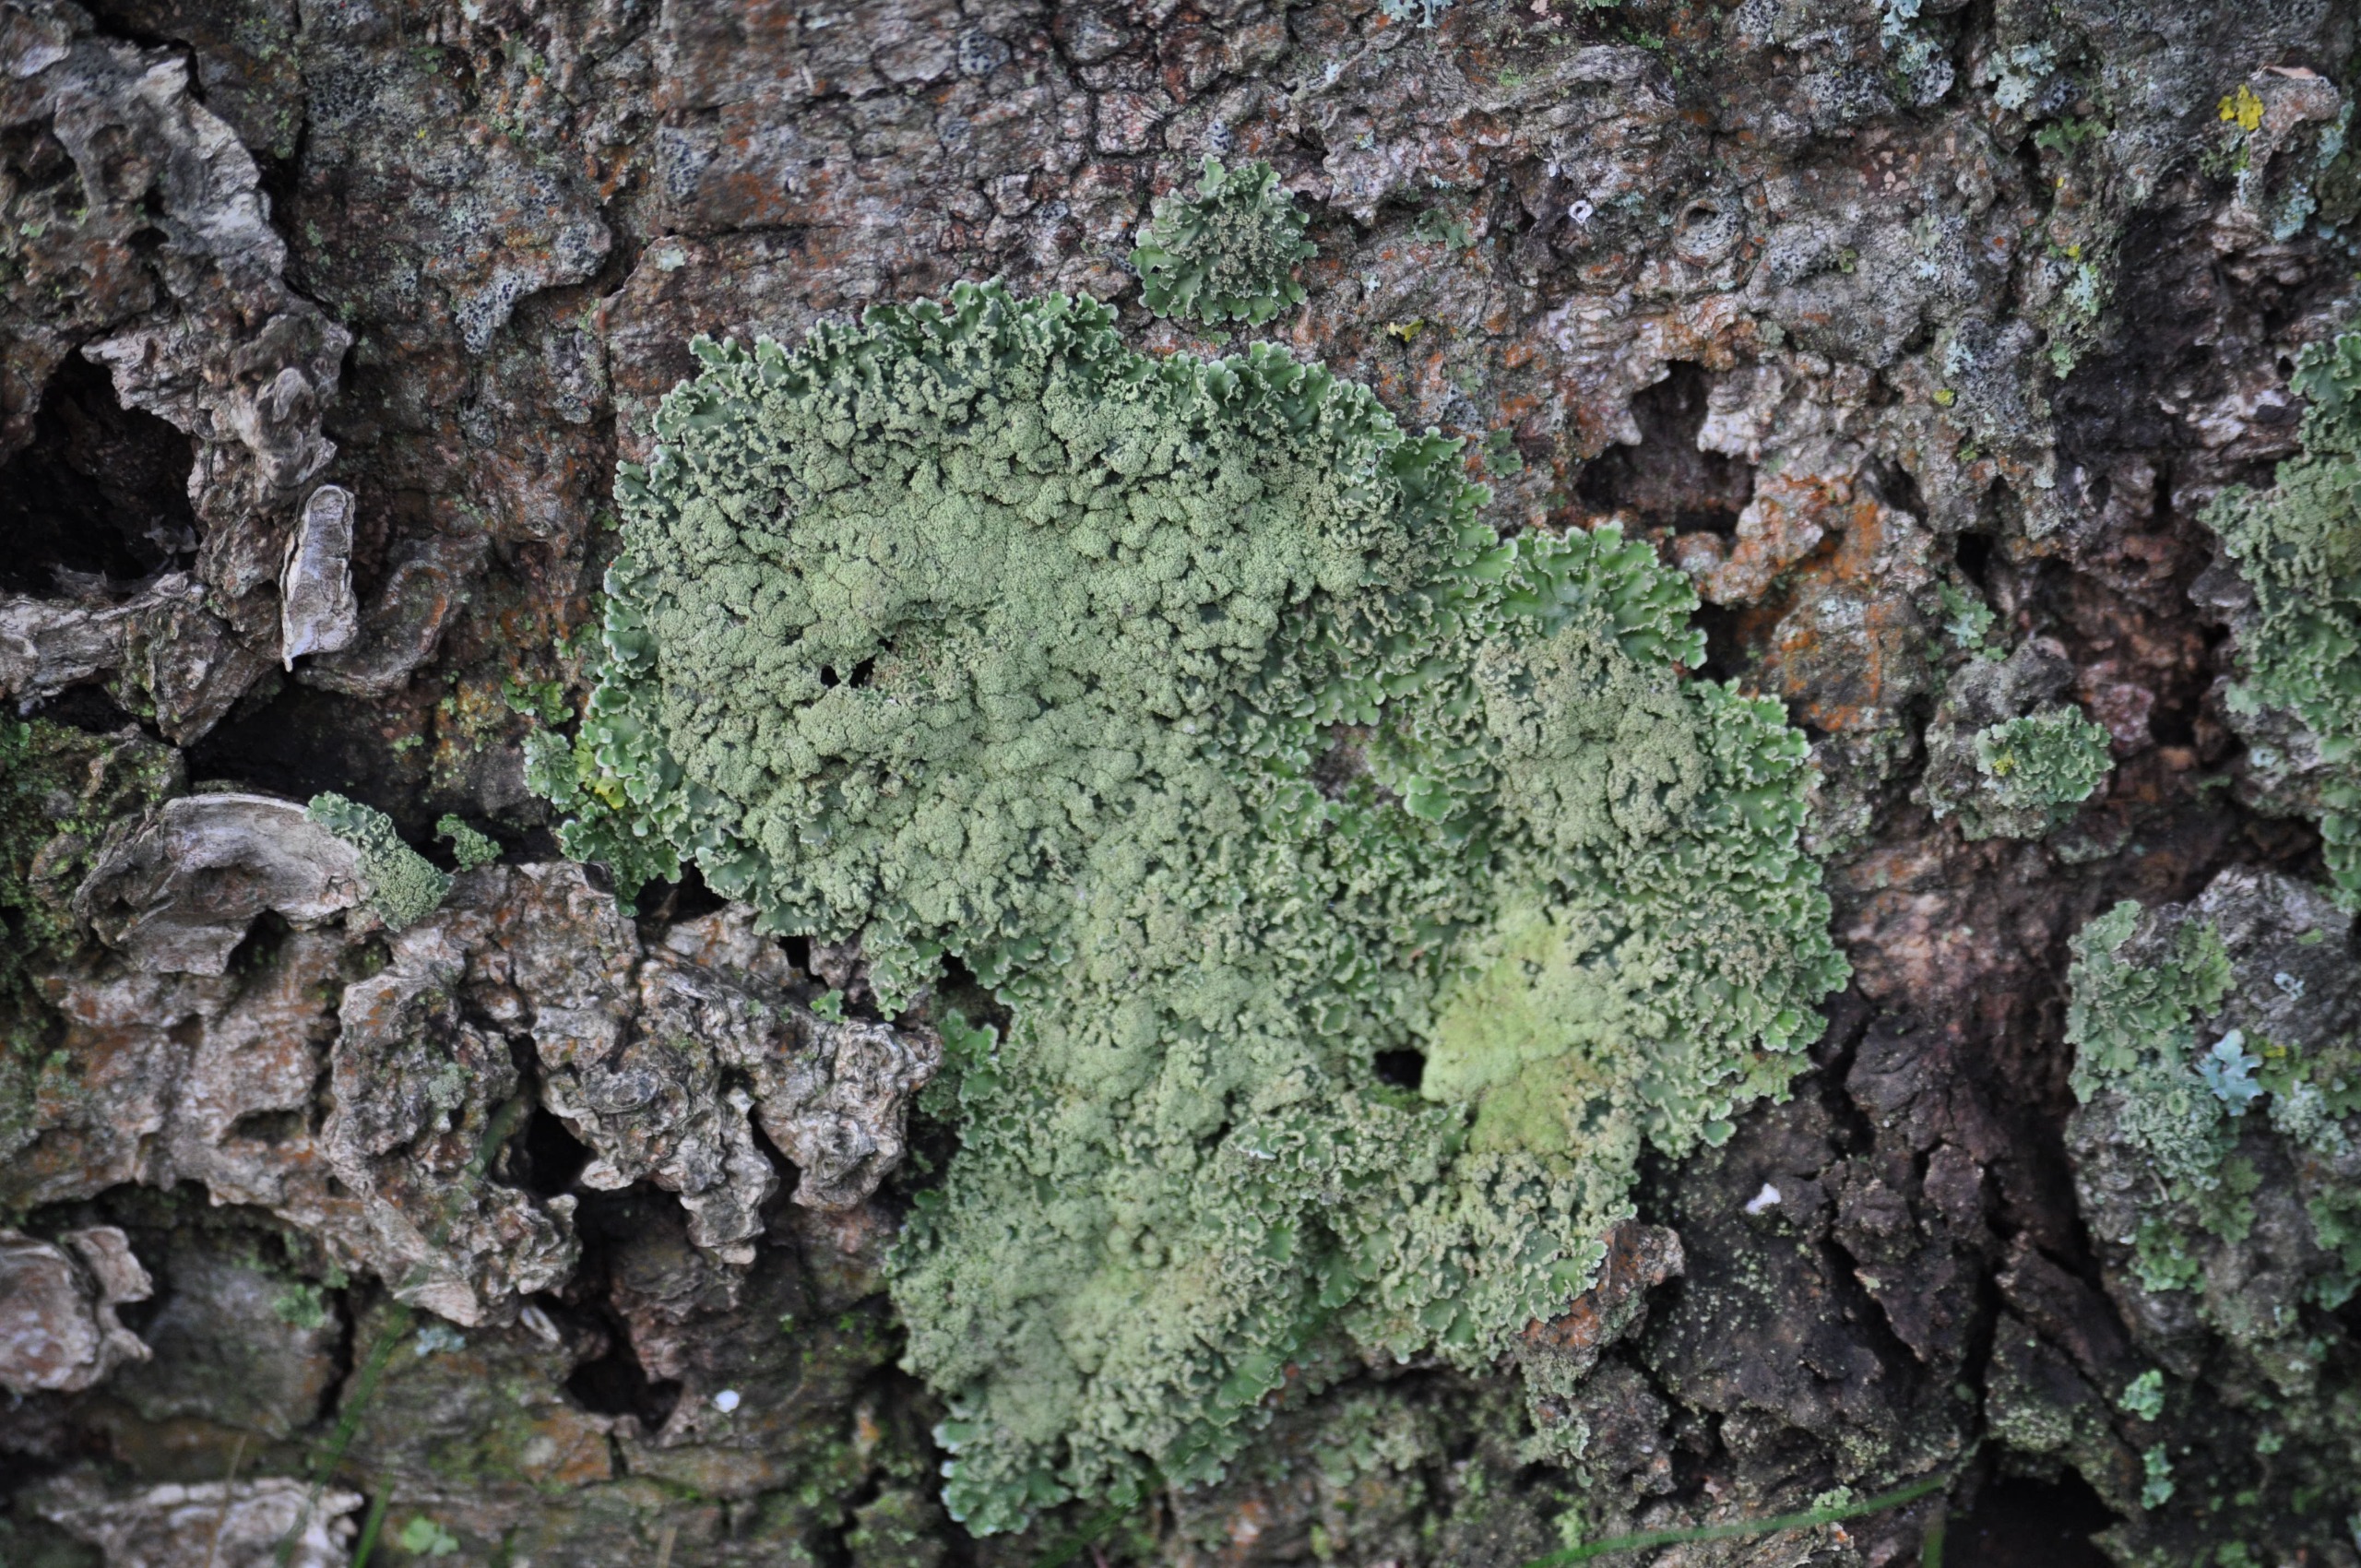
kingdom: Fungi
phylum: Ascomycota
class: Lecanoromycetes
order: Caliciales
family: Physciaceae
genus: Physconia
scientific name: Physconia
